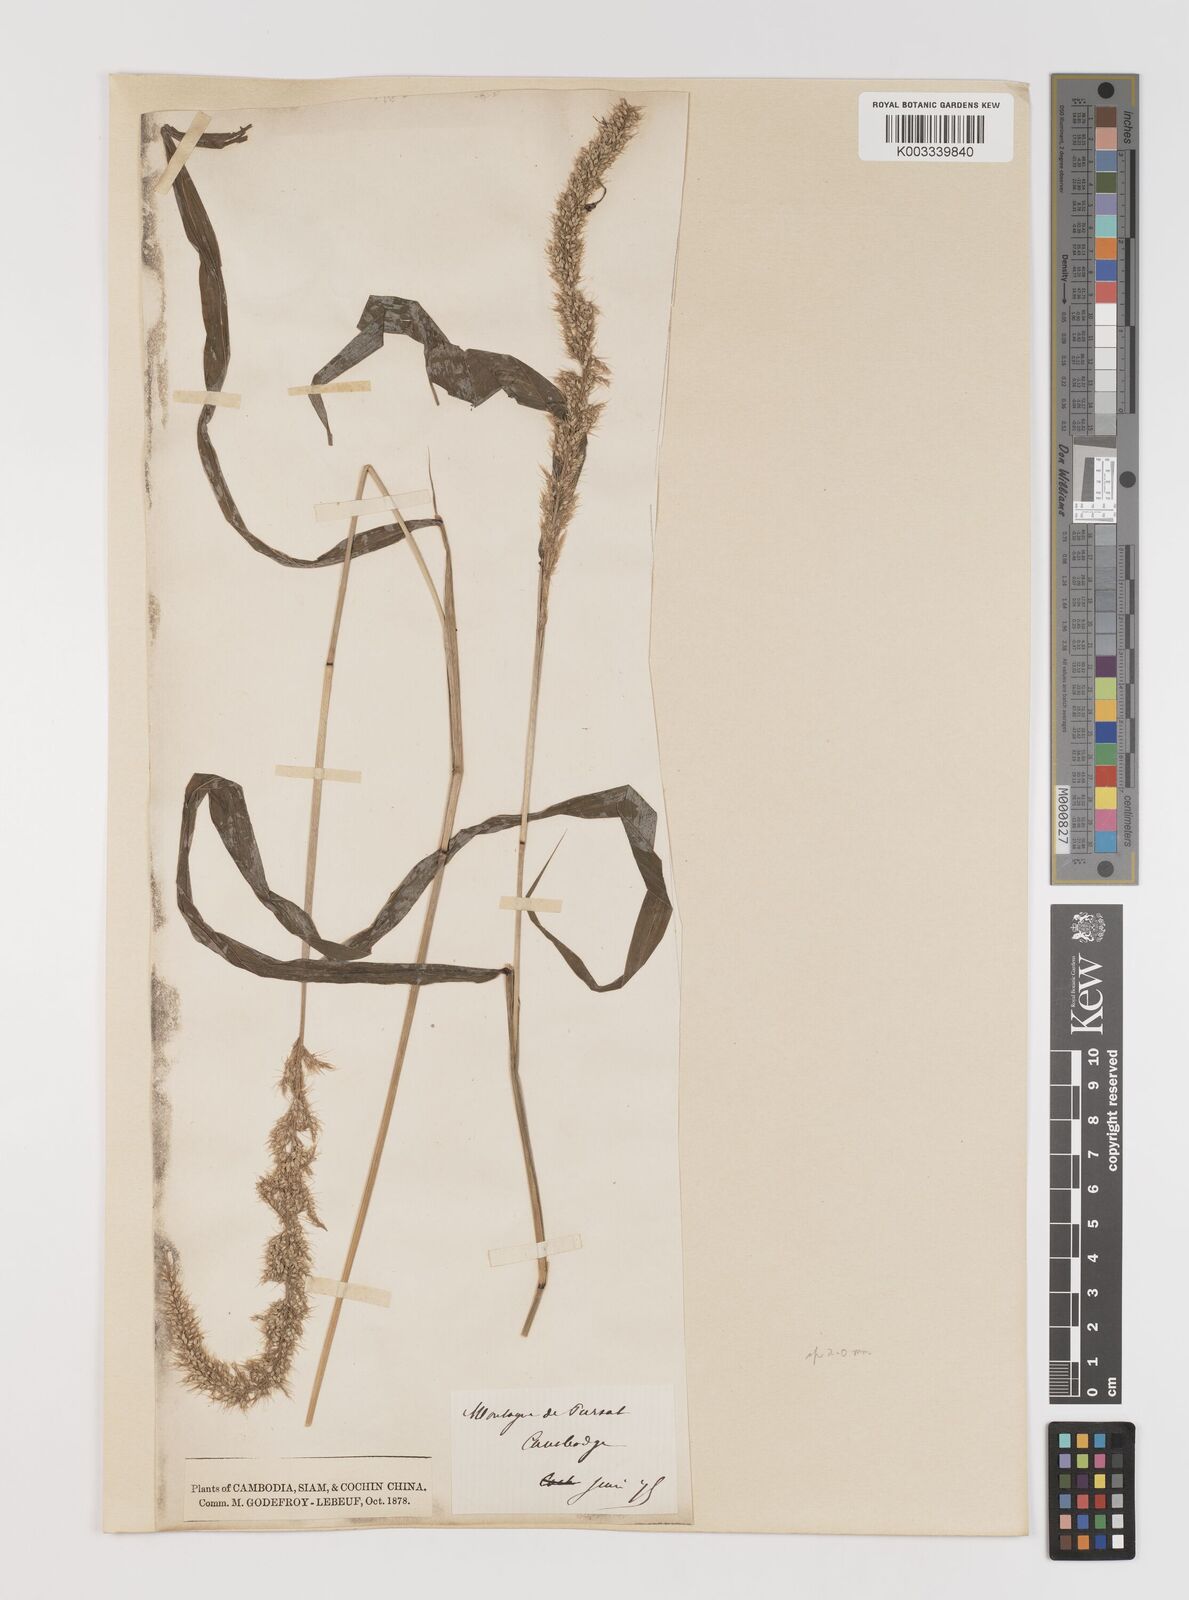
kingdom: Plantae
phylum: Tracheophyta
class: Liliopsida
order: Poales
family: Poaceae
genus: Setaria
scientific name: Setaria verticillata
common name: Hooked bristlegrass
